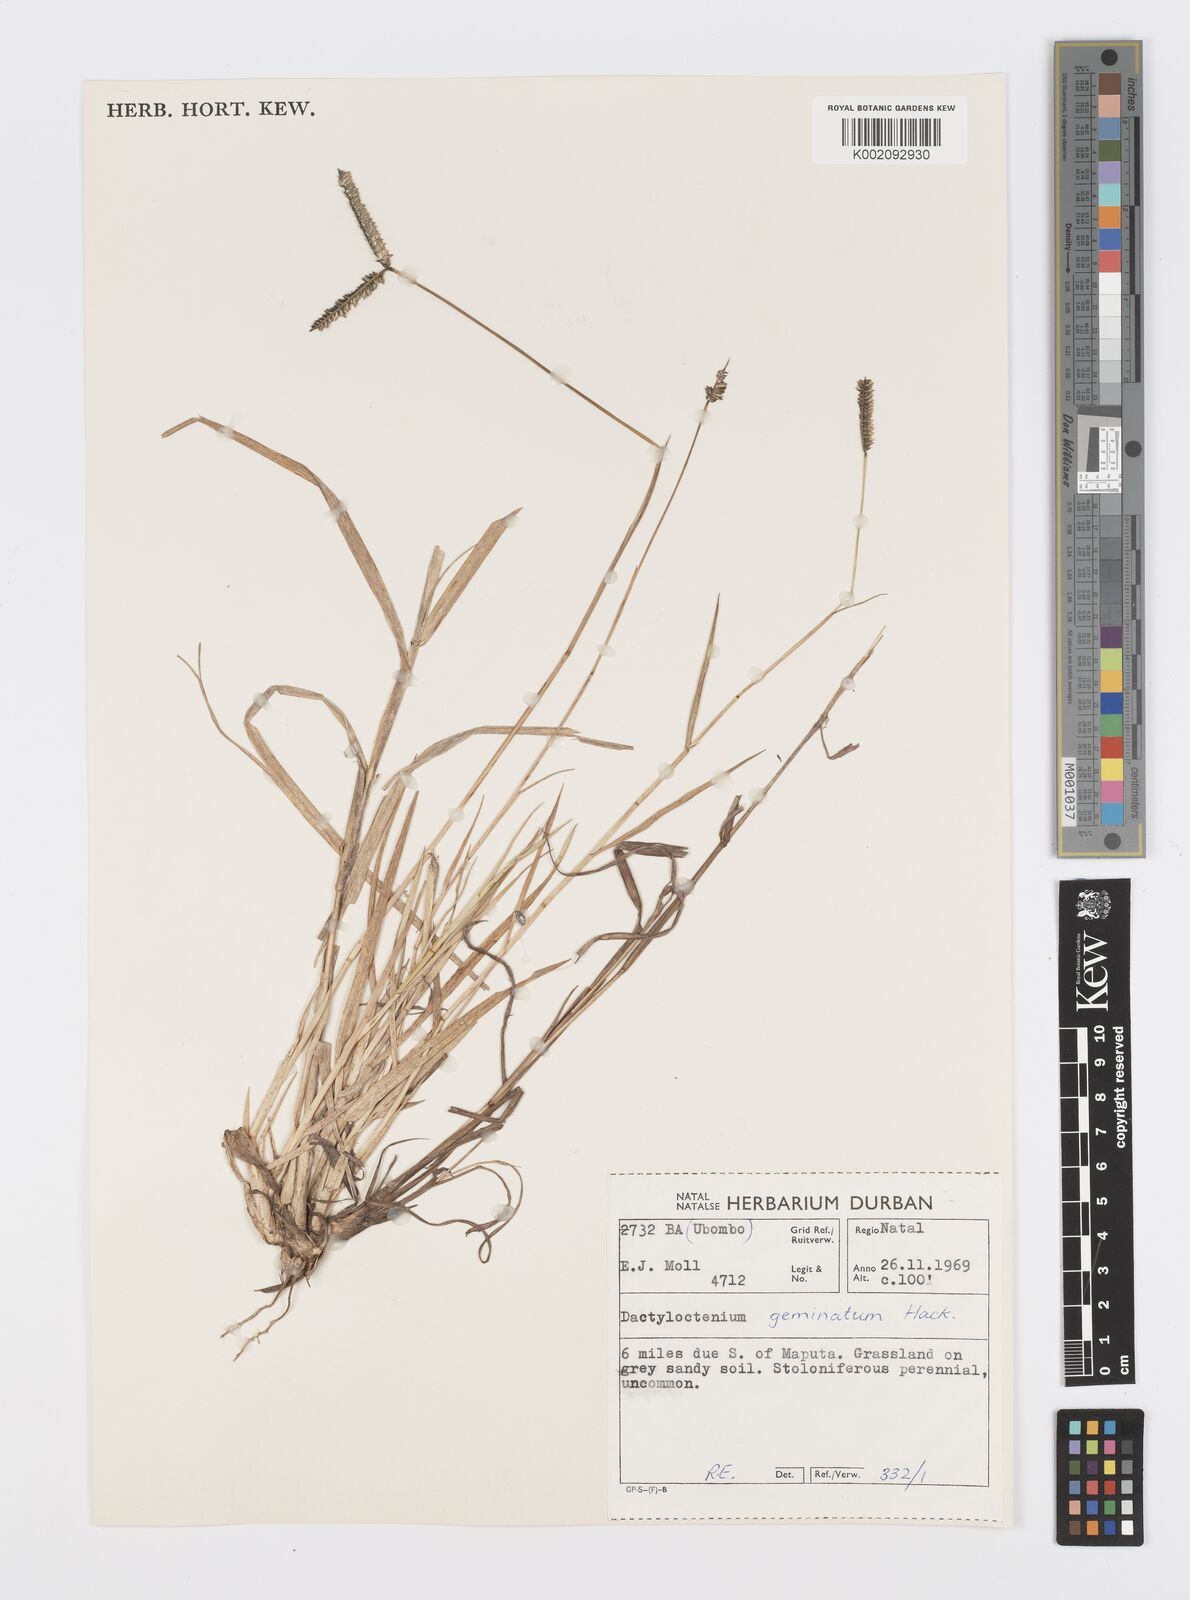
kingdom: Plantae
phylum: Tracheophyta
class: Liliopsida
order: Poales
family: Poaceae
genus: Dactyloctenium
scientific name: Dactyloctenium geminatum
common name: Crowsfoot grass
